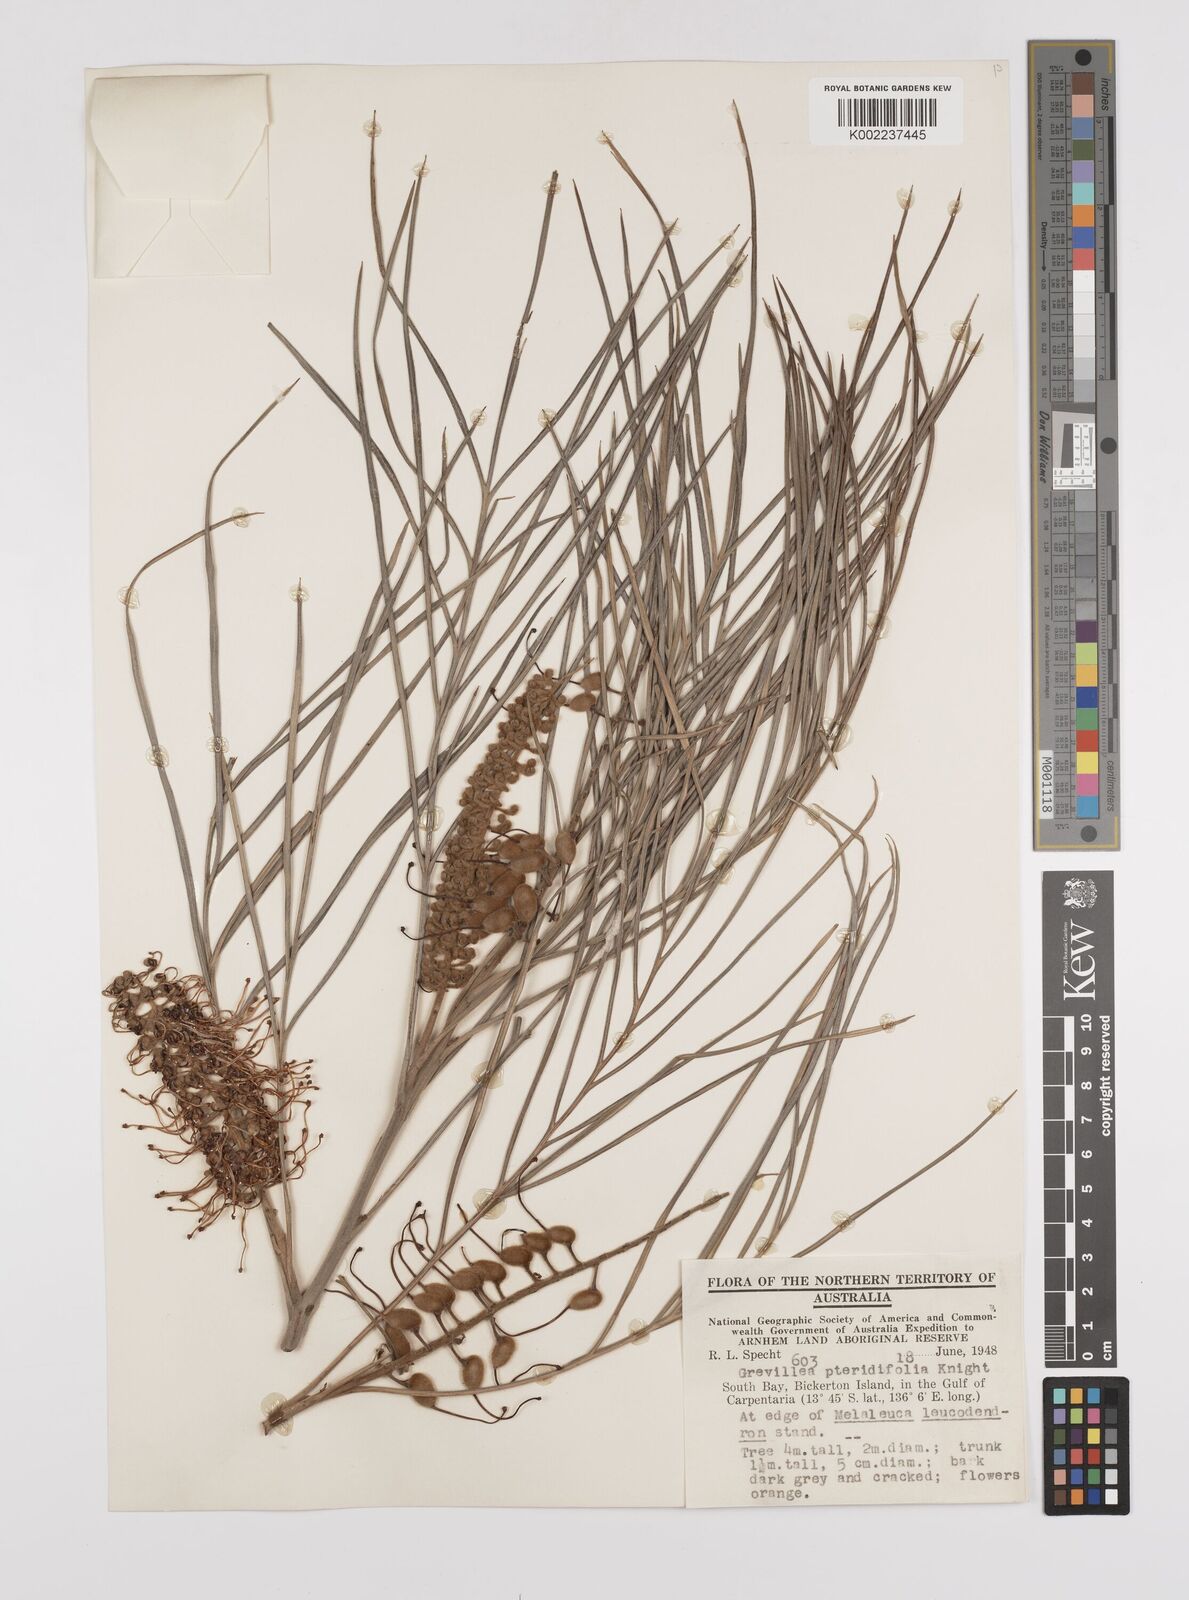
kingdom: Plantae
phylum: Tracheophyta
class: Magnoliopsida
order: Proteales
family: Proteaceae
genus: Grevillea
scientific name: Grevillea pteridifolia
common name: Golden grevillea
